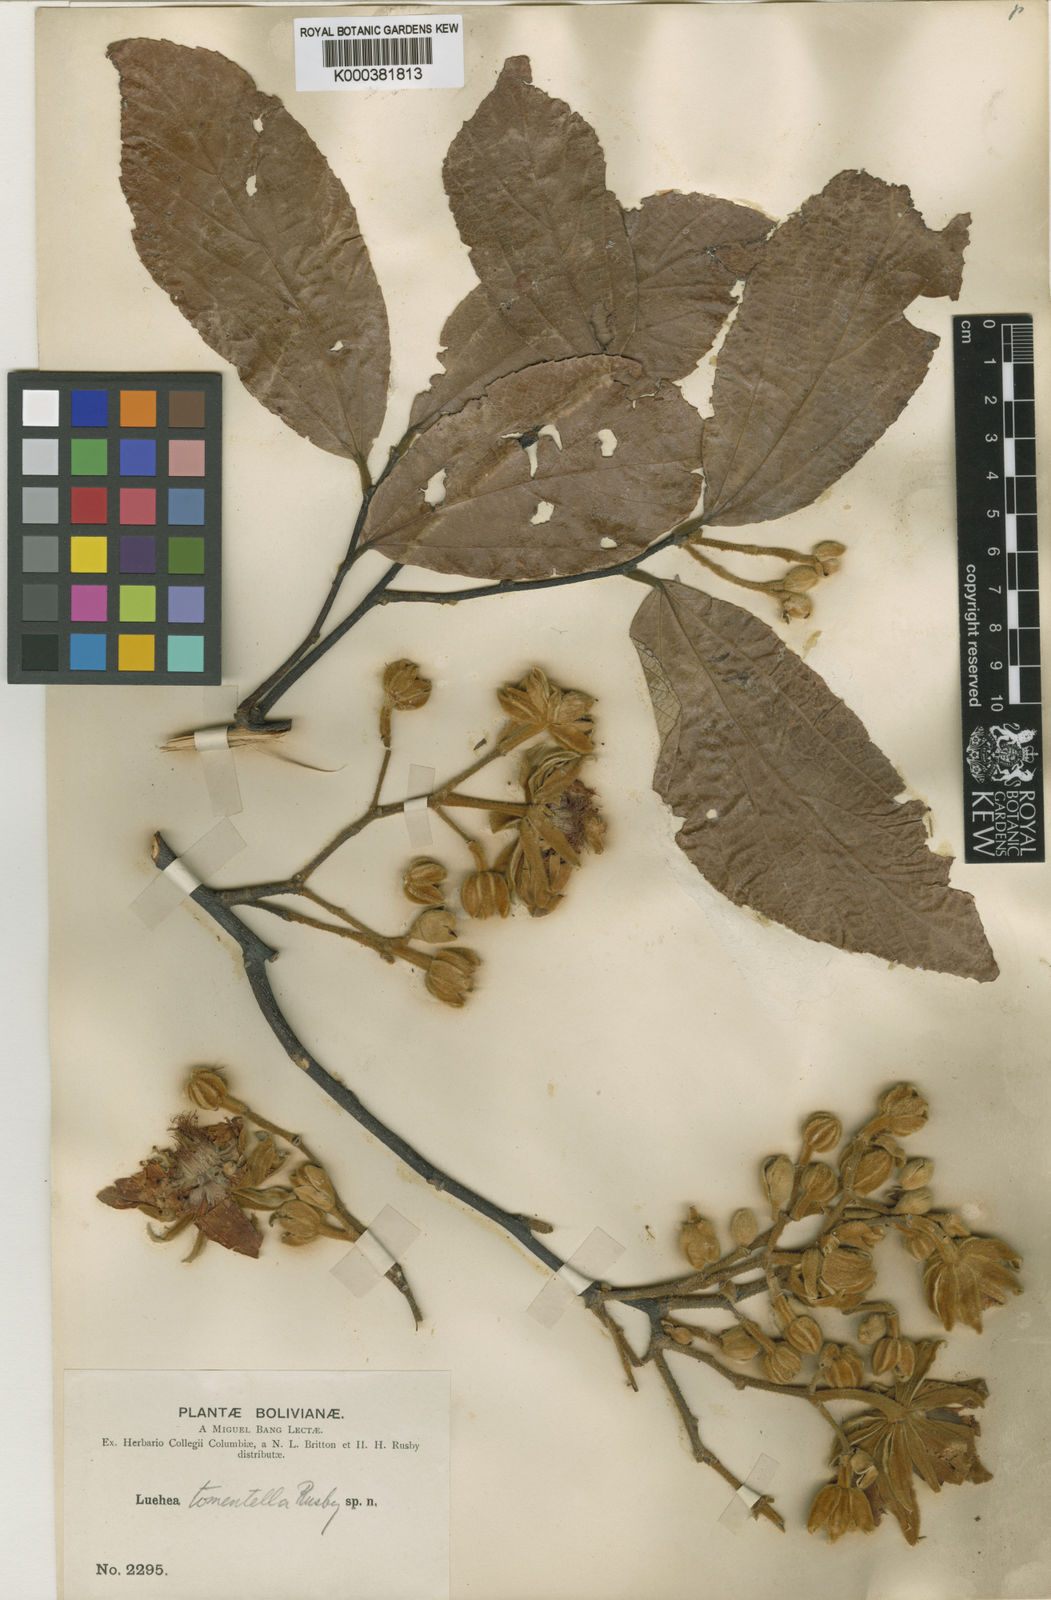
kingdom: Plantae
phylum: Tracheophyta
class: Magnoliopsida
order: Malvales
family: Malvaceae
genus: Luehea
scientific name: Luehea tomentella
